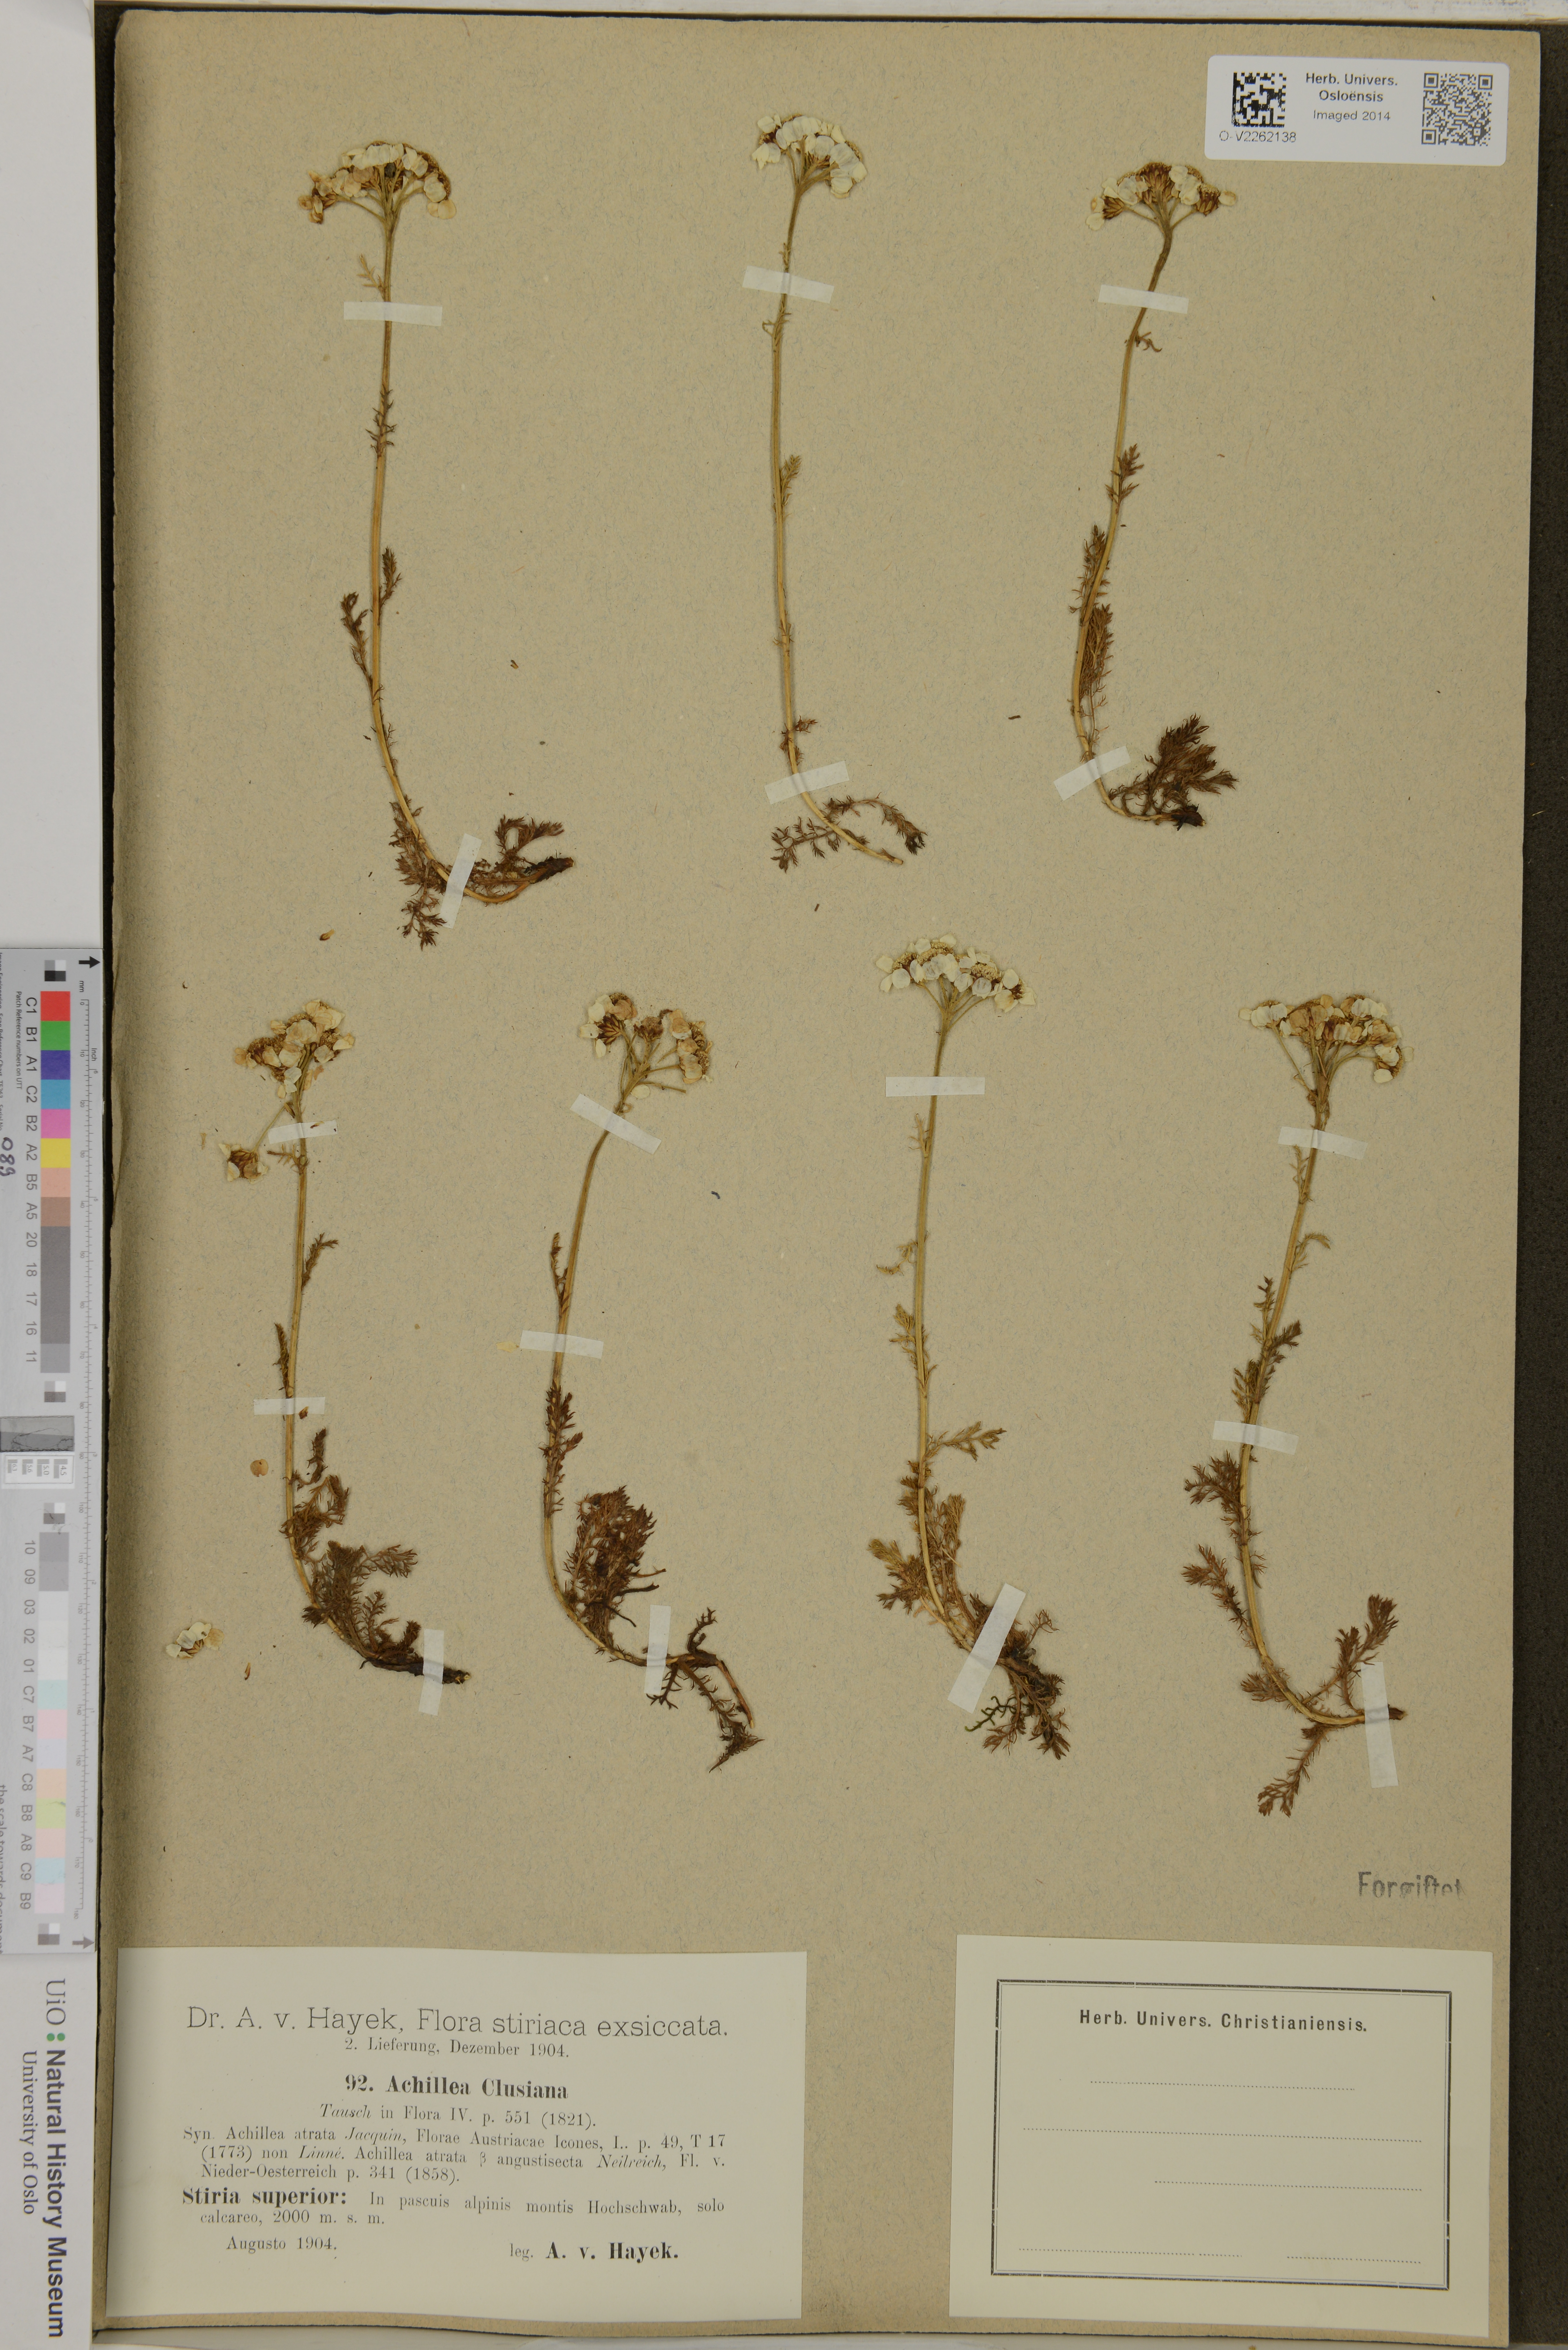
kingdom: Plantae
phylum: Tracheophyta
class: Magnoliopsida
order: Asterales
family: Asteraceae
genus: Achillea
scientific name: Achillea clusiana
